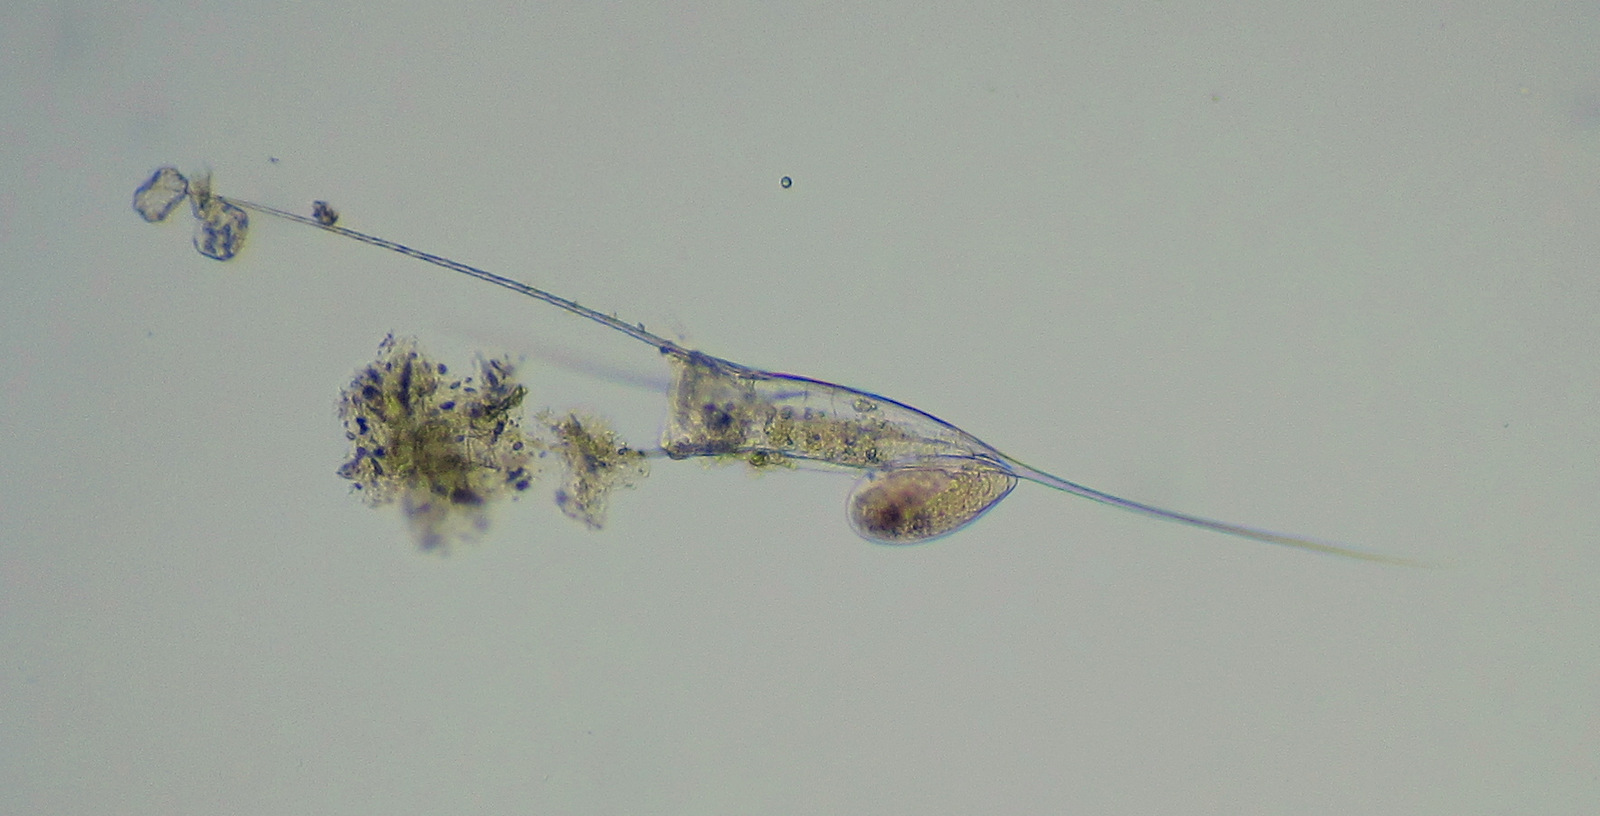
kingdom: Animalia
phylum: Rotifera
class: Eurotatoria
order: Ploima
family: Brachionidae
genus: Kellicottia
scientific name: Kellicottia longispina
